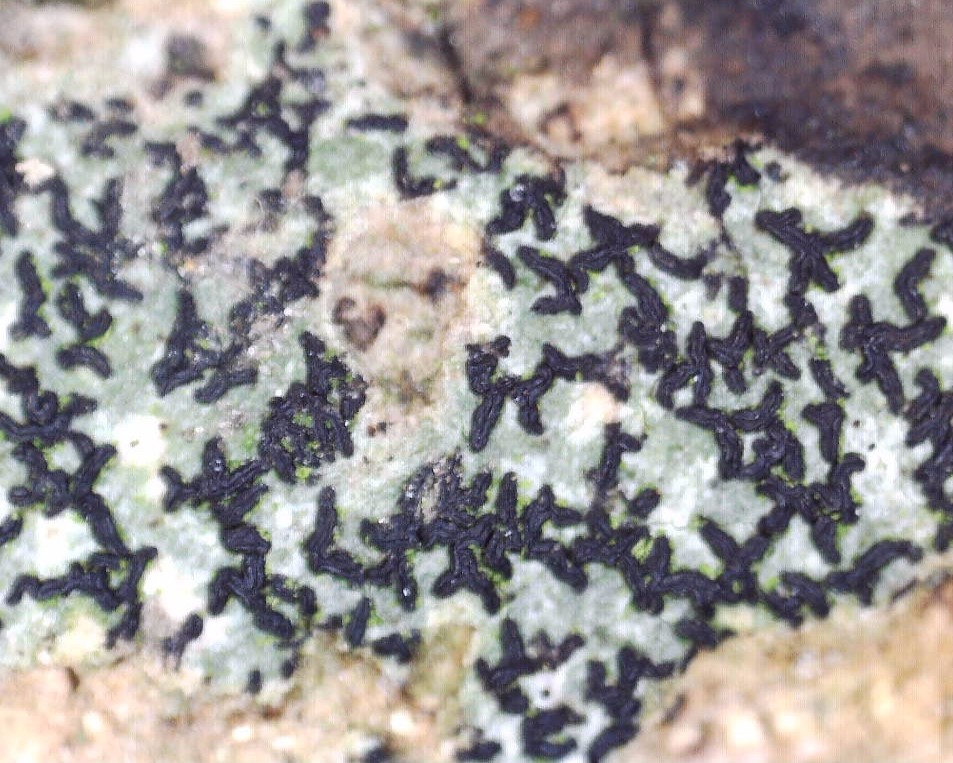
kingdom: Fungi
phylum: Ascomycota
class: Arthoniomycetes
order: Arthoniales
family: Arthoniaceae
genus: Arthonia
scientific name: Arthonia atra
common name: sort bogstavlav
